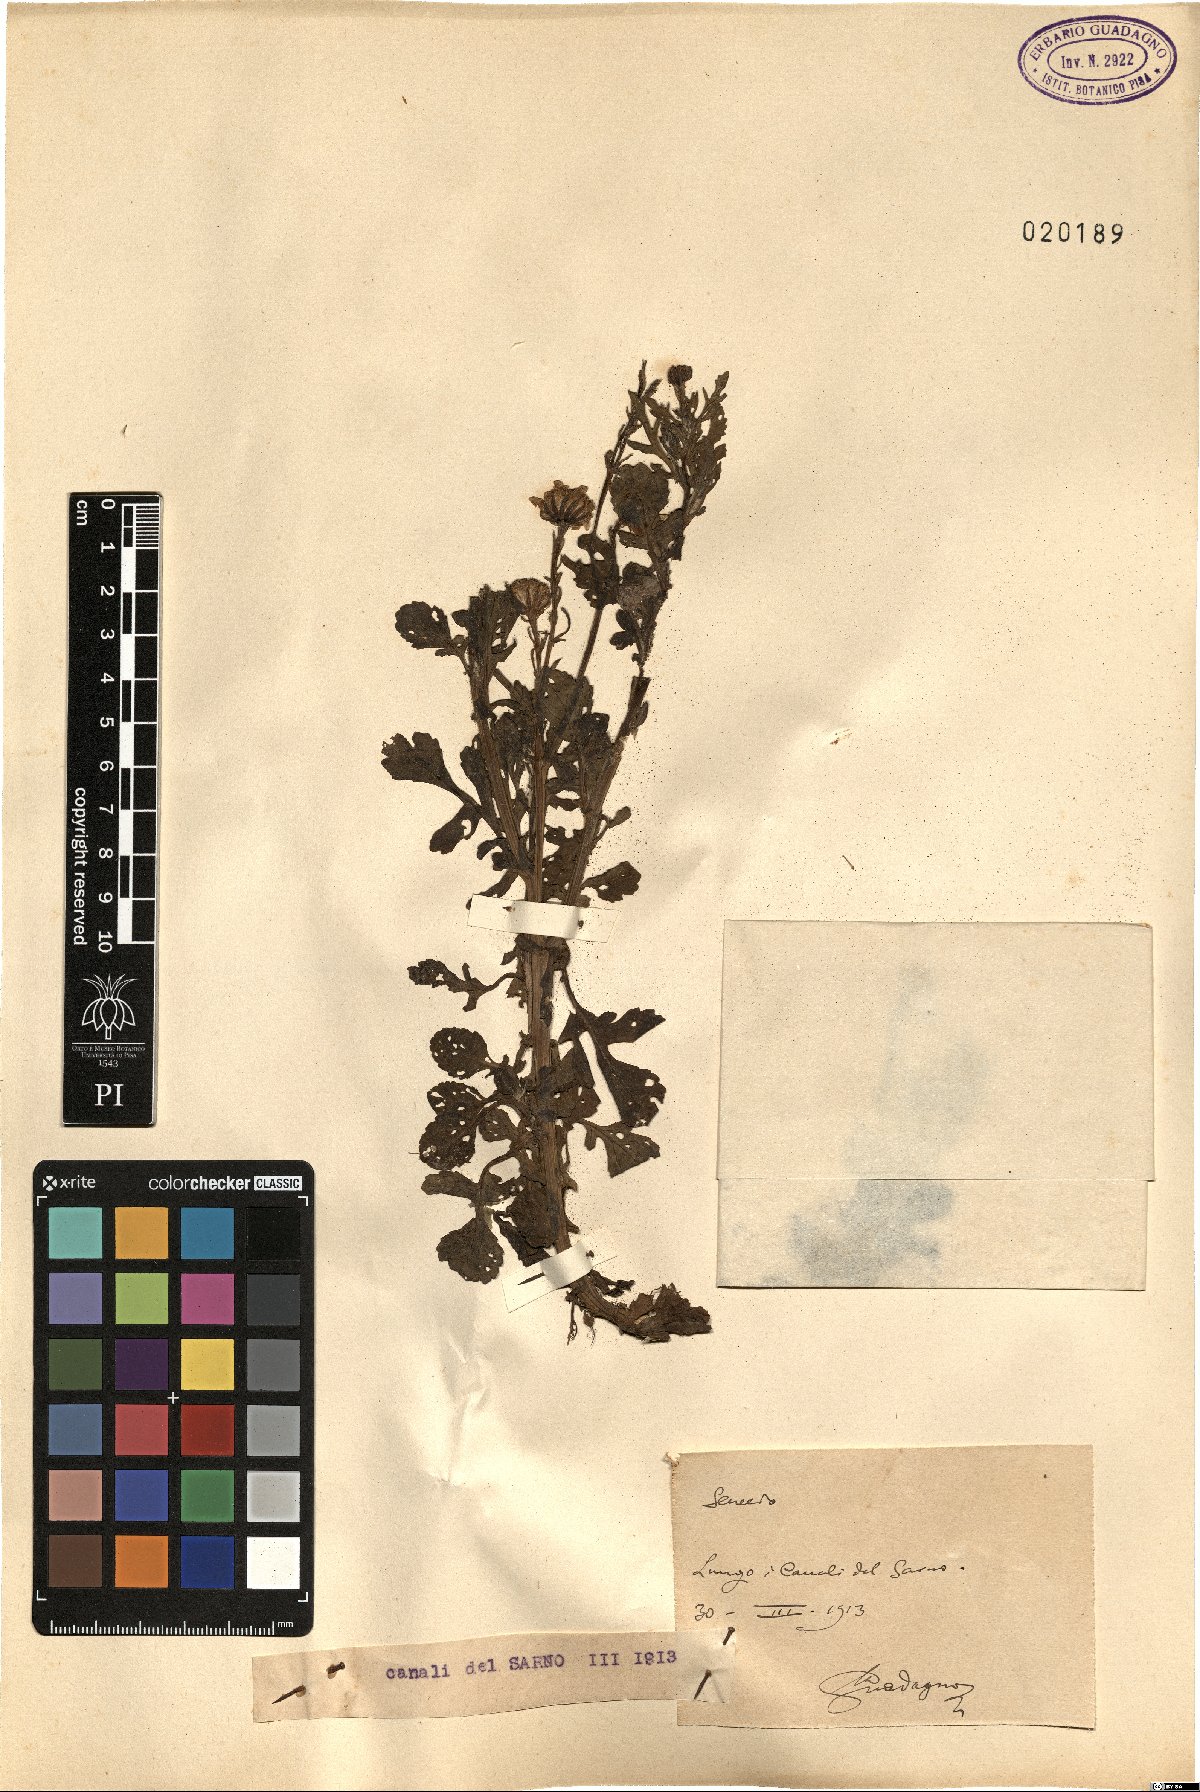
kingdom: Plantae
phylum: Tracheophyta
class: Magnoliopsida
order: Asterales
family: Asteraceae
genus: Senecio
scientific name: Senecio
